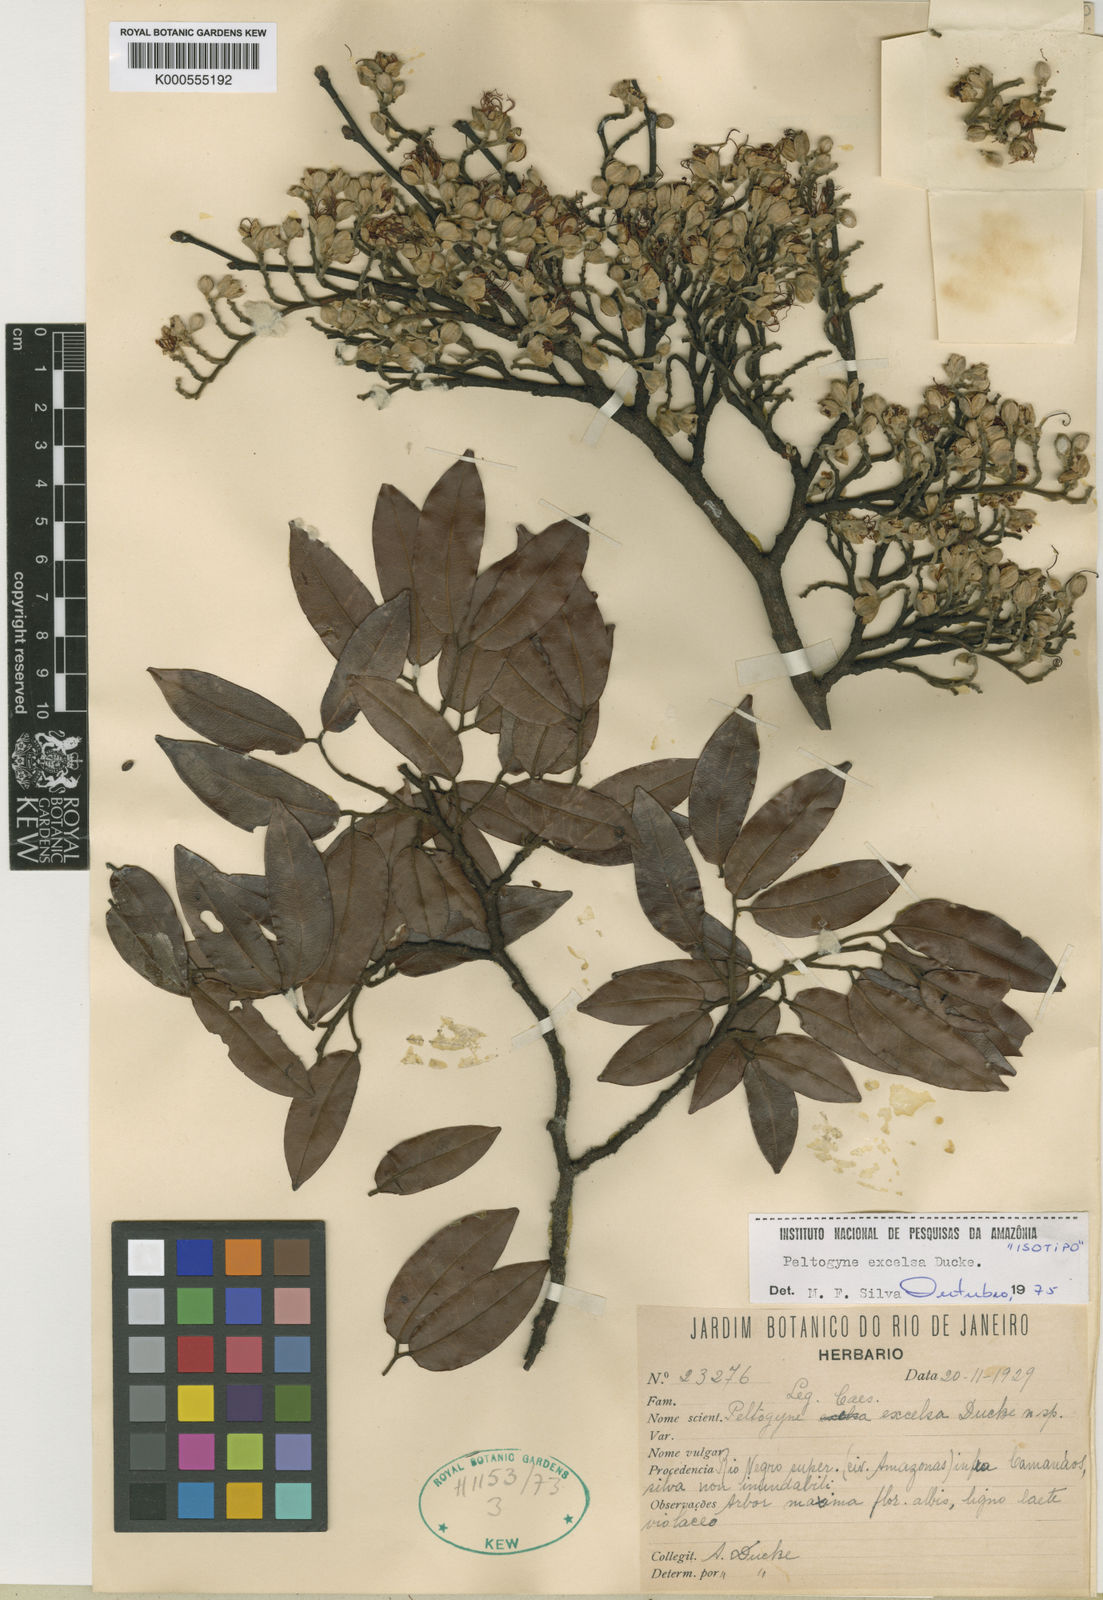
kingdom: Plantae
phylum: Tracheophyta
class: Magnoliopsida
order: Fabales
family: Fabaceae
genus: Peltogyne
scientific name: Peltogyne excelsa
